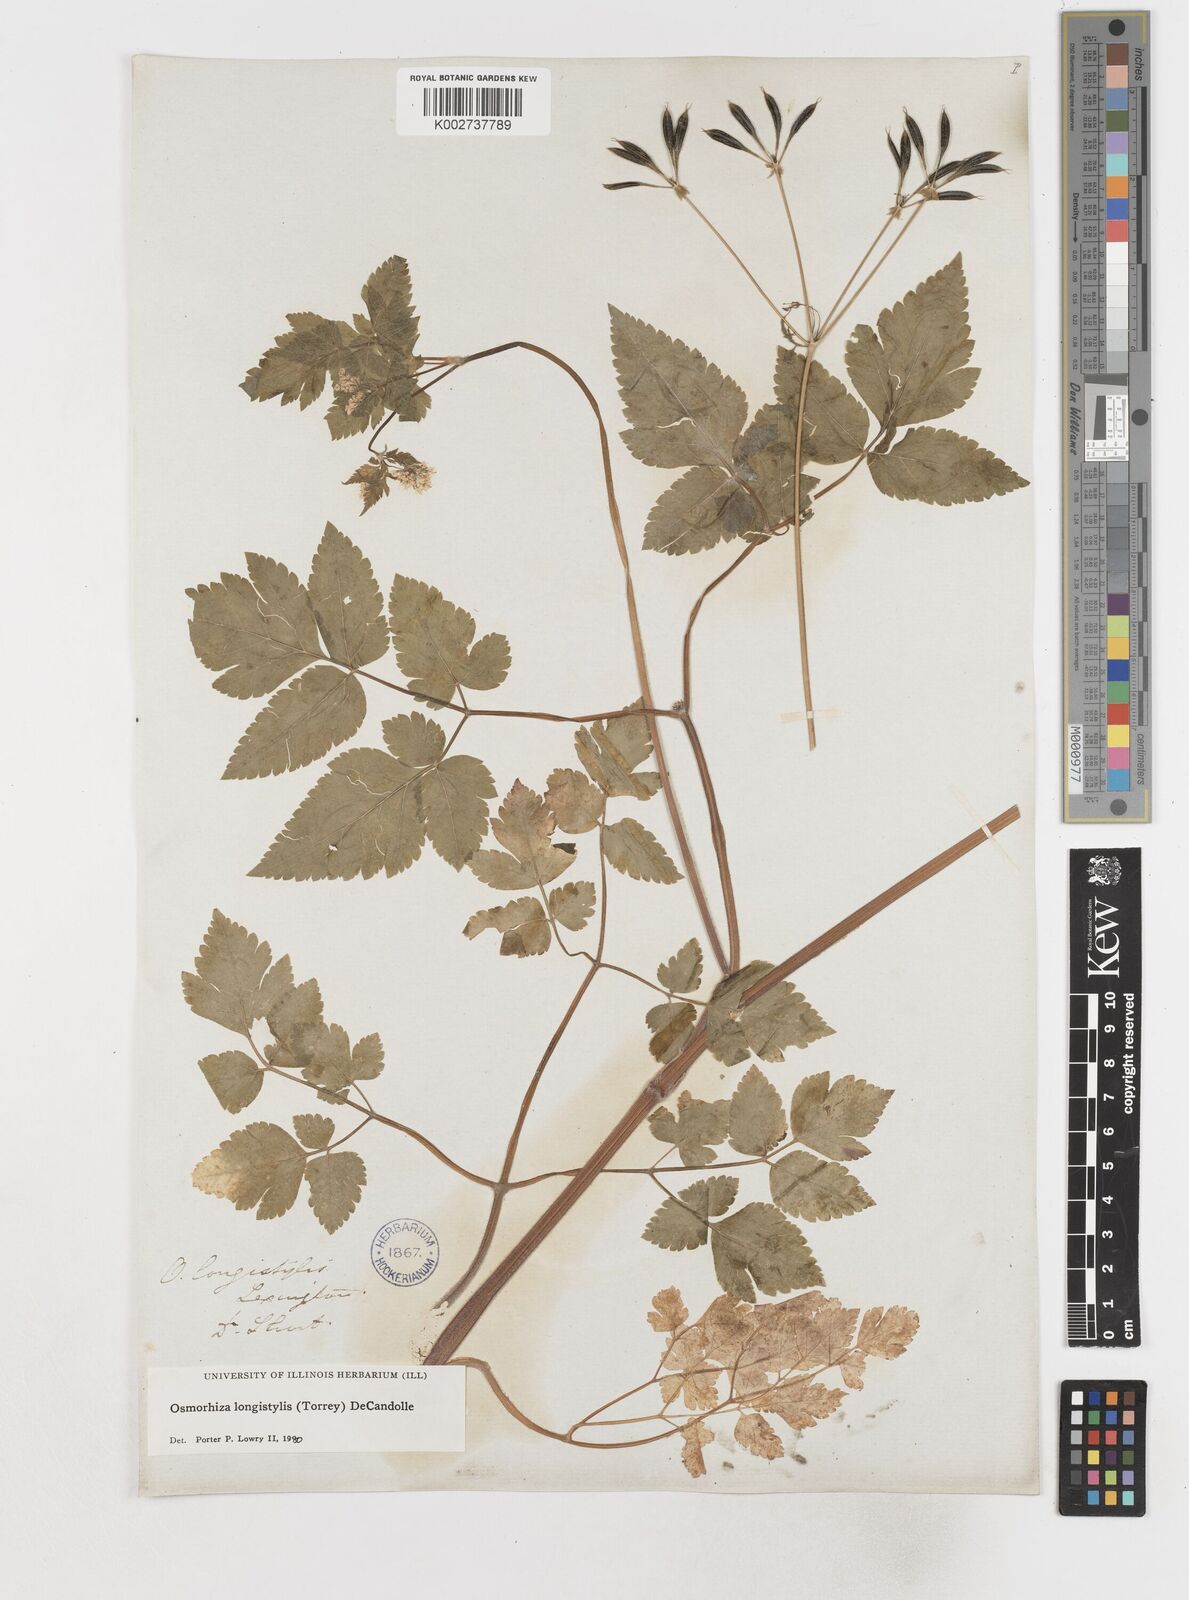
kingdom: Plantae
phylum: Tracheophyta
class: Magnoliopsida
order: Apiales
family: Apiaceae
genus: Osmorhiza
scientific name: Osmorhiza longistylis
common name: Smooth sweet cicely
